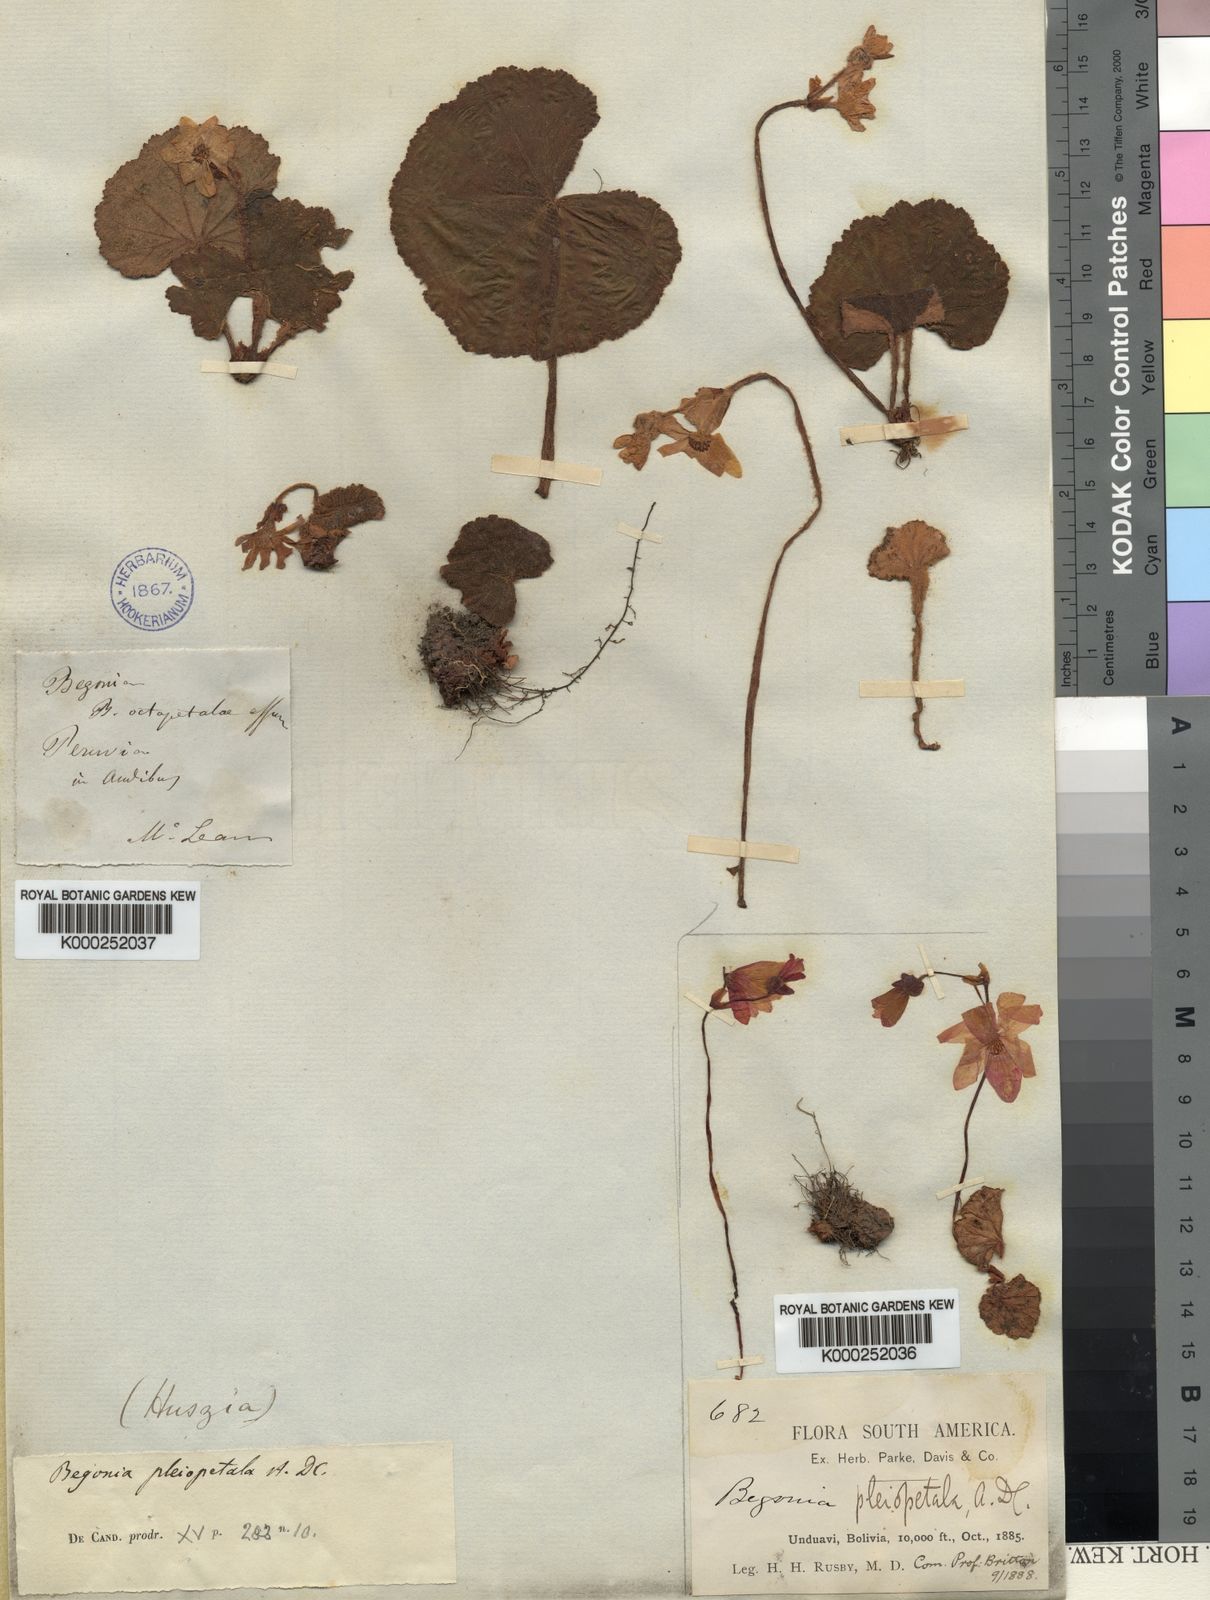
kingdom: Plantae
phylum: Tracheophyta
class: Magnoliopsida
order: Cucurbitales
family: Begoniaceae
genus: Begonia
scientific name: Begonia pleiopetala
